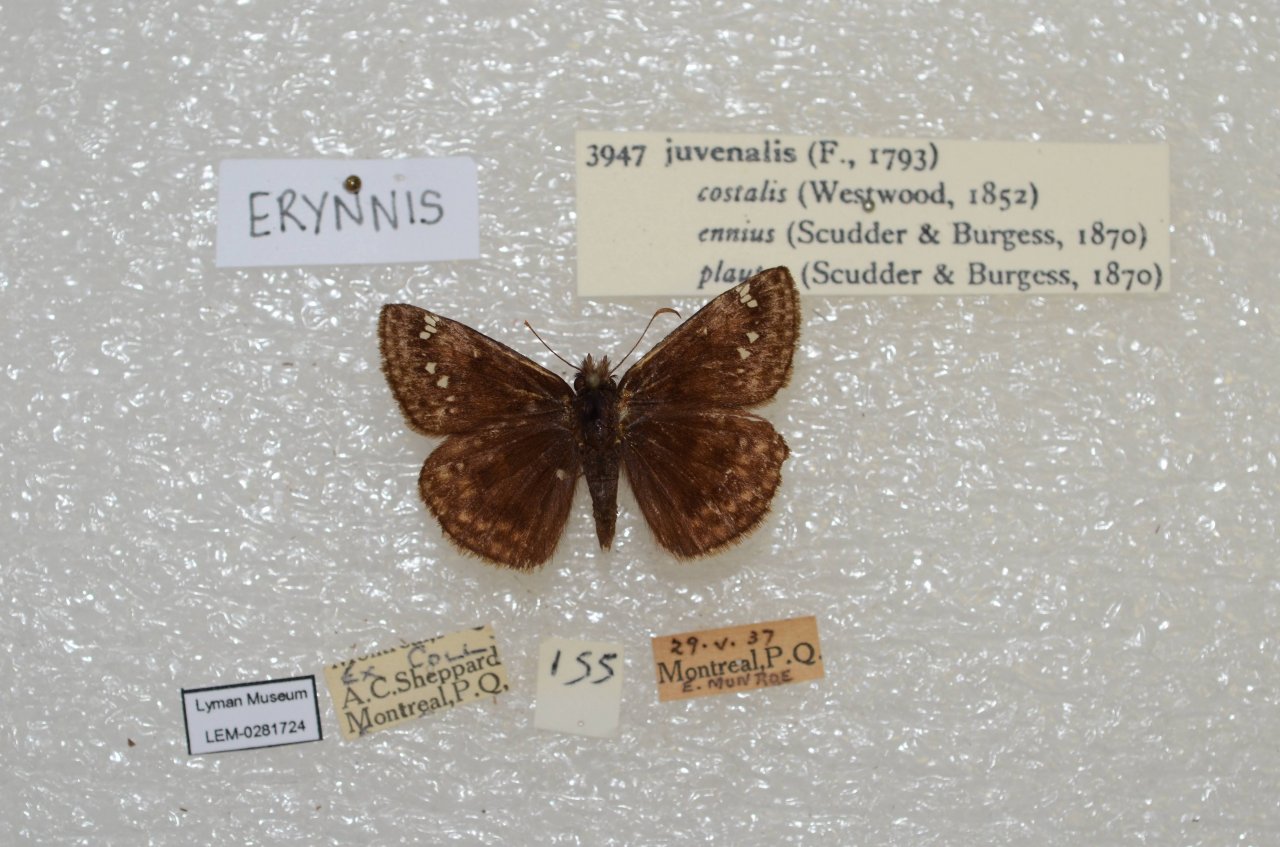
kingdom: Animalia
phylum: Arthropoda
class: Insecta
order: Lepidoptera
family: Hesperiidae
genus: Gesta
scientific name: Gesta
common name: Juvenal's Duskywing
